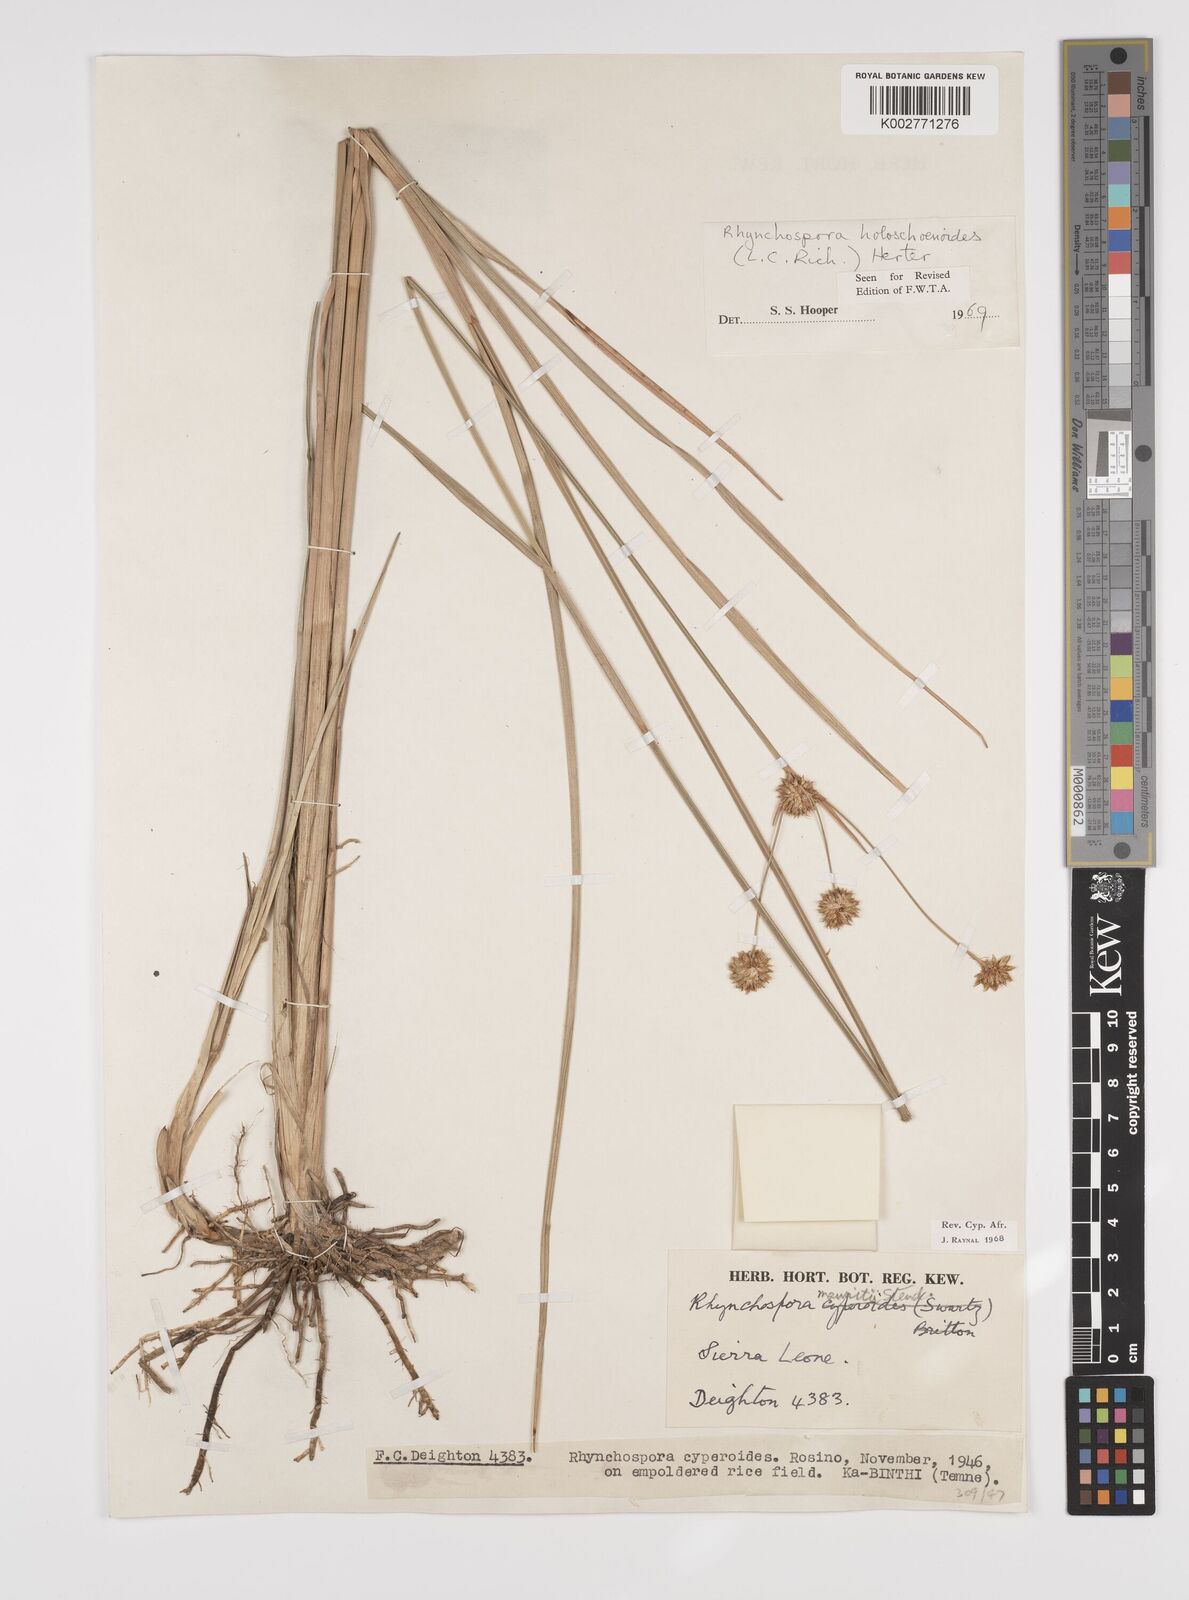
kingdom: Plantae
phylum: Tracheophyta
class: Liliopsida
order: Poales
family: Cyperaceae
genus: Rhynchospora
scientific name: Rhynchospora holoschoenoides
